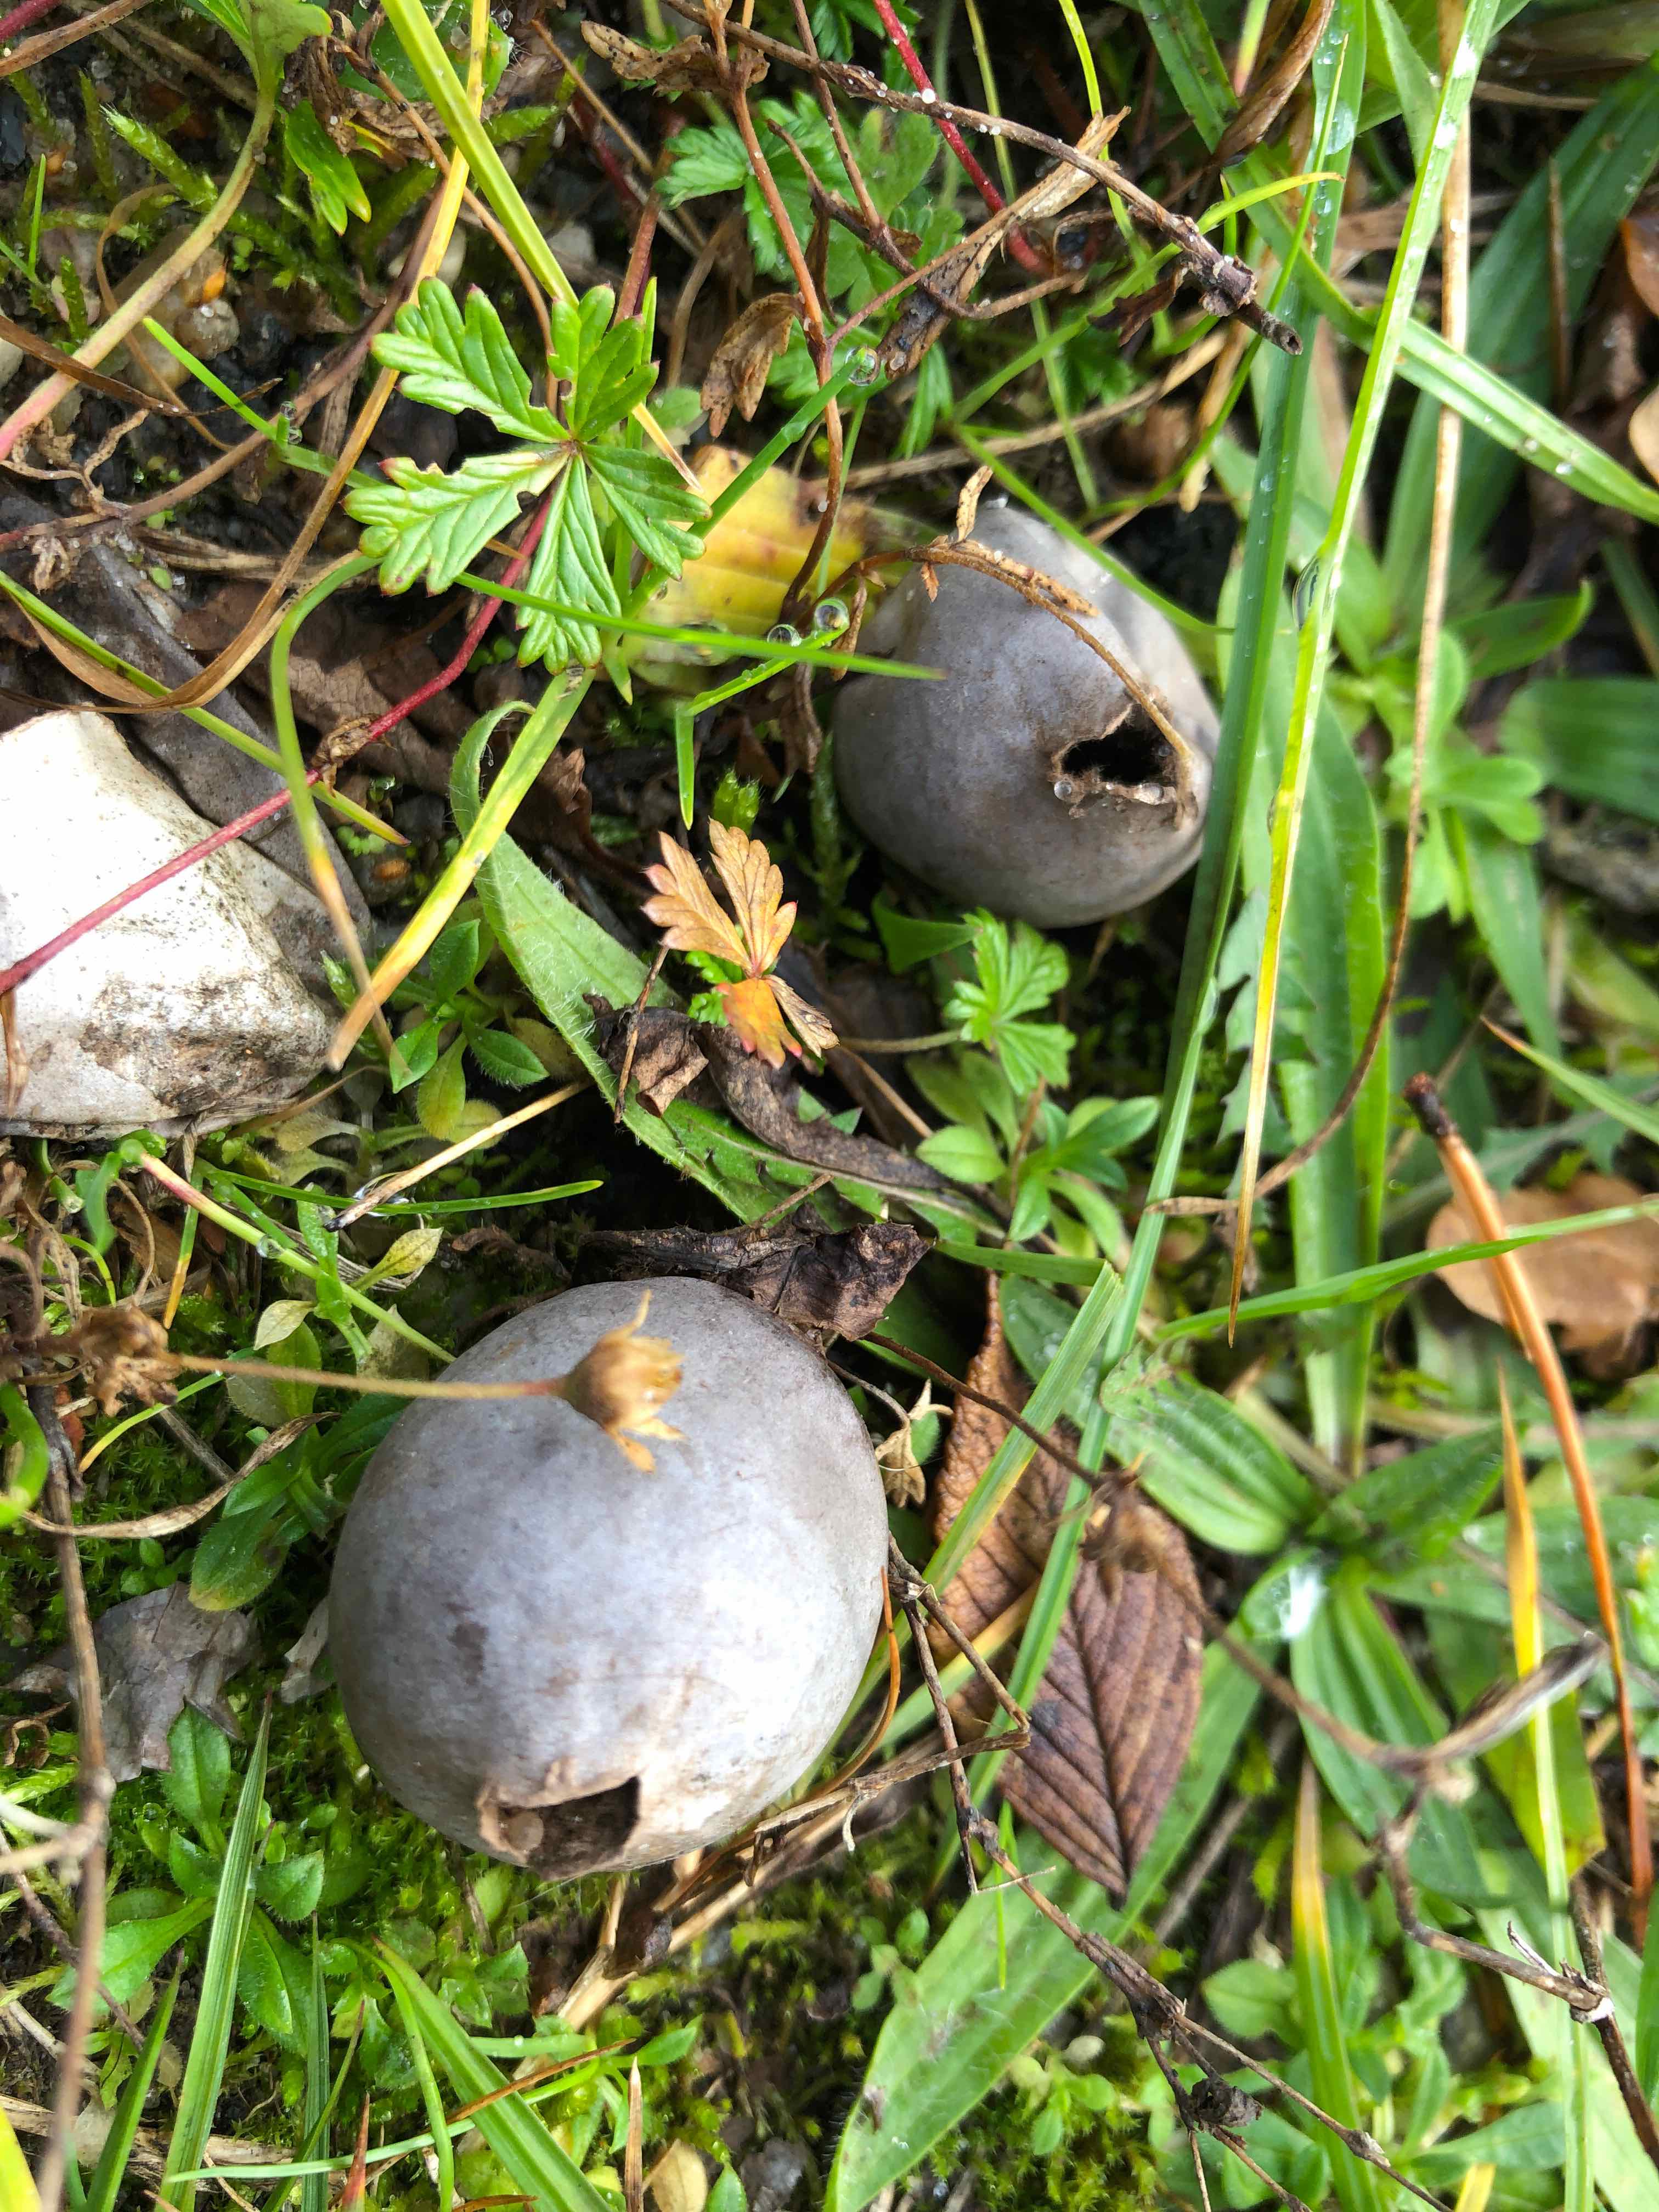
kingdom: Fungi
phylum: Basidiomycota
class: Agaricomycetes
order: Agaricales
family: Lycoperdaceae
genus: Bovista
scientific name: Bovista plumbea
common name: blygrå bovist
